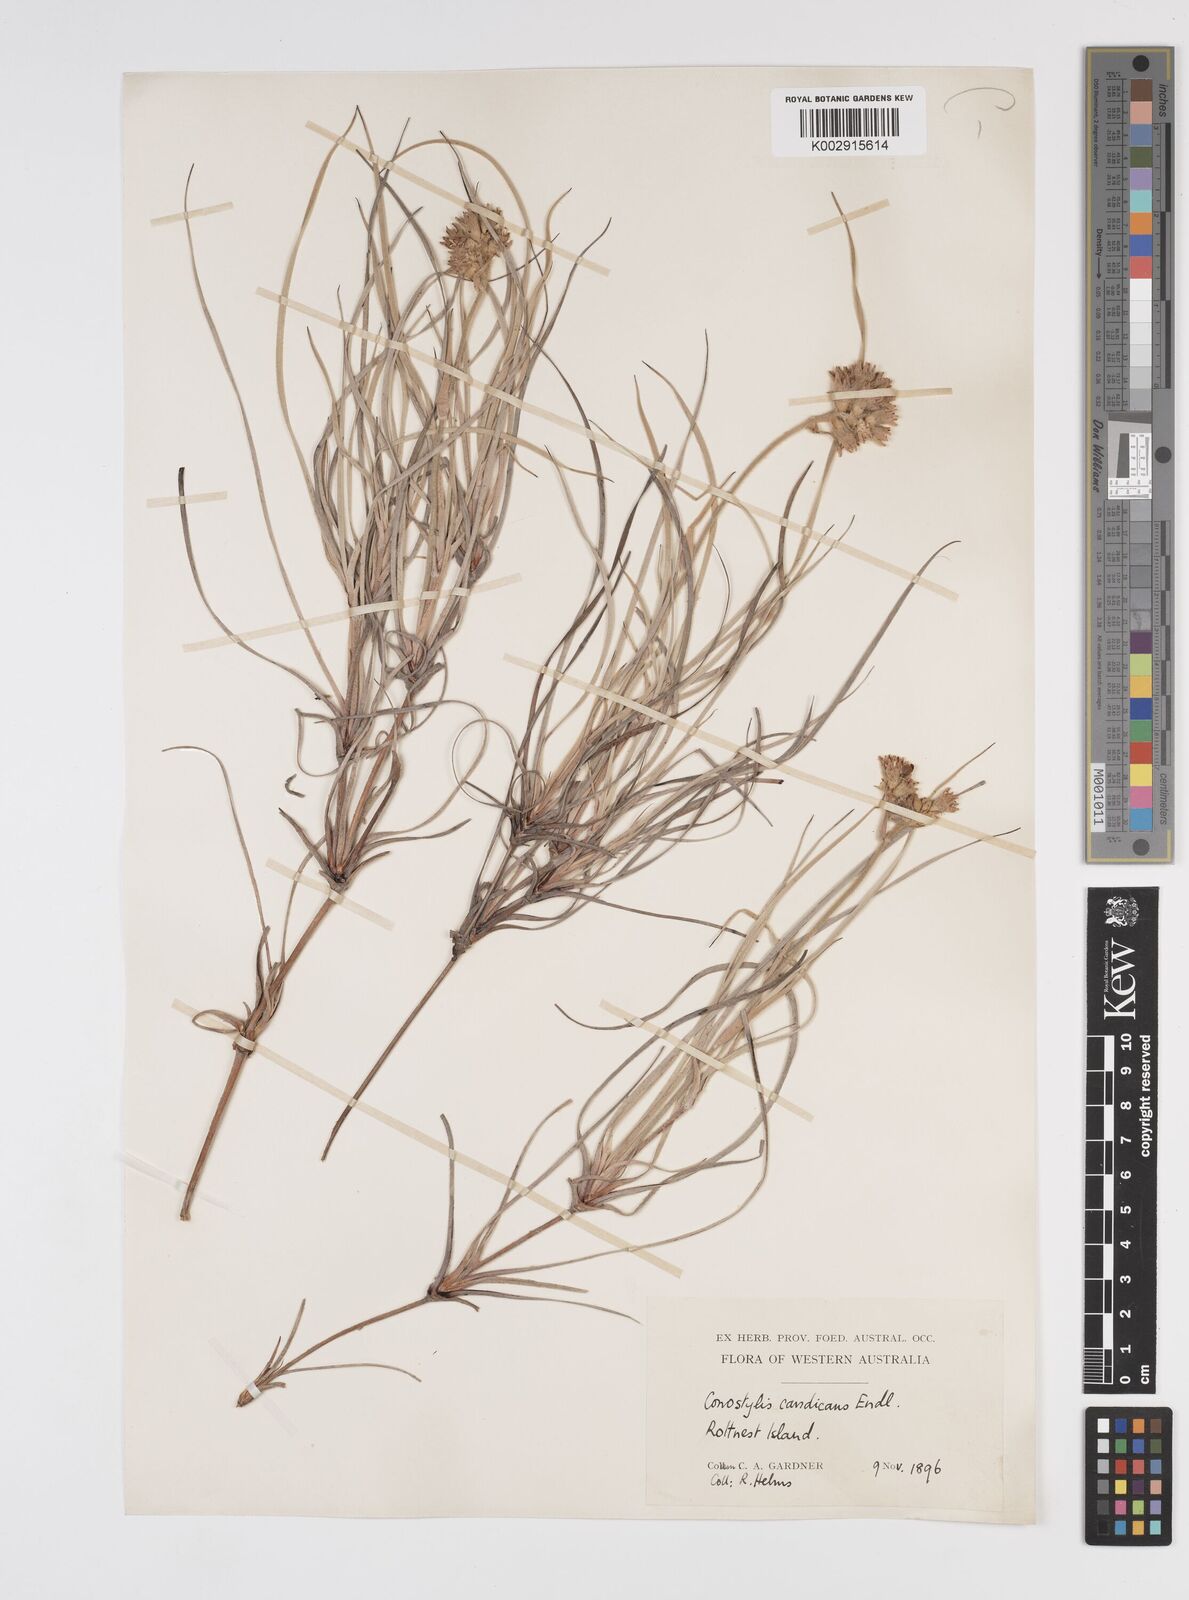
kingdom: Plantae
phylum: Tracheophyta
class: Liliopsida
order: Commelinales
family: Haemodoraceae
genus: Conostylis
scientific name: Conostylis candicans
